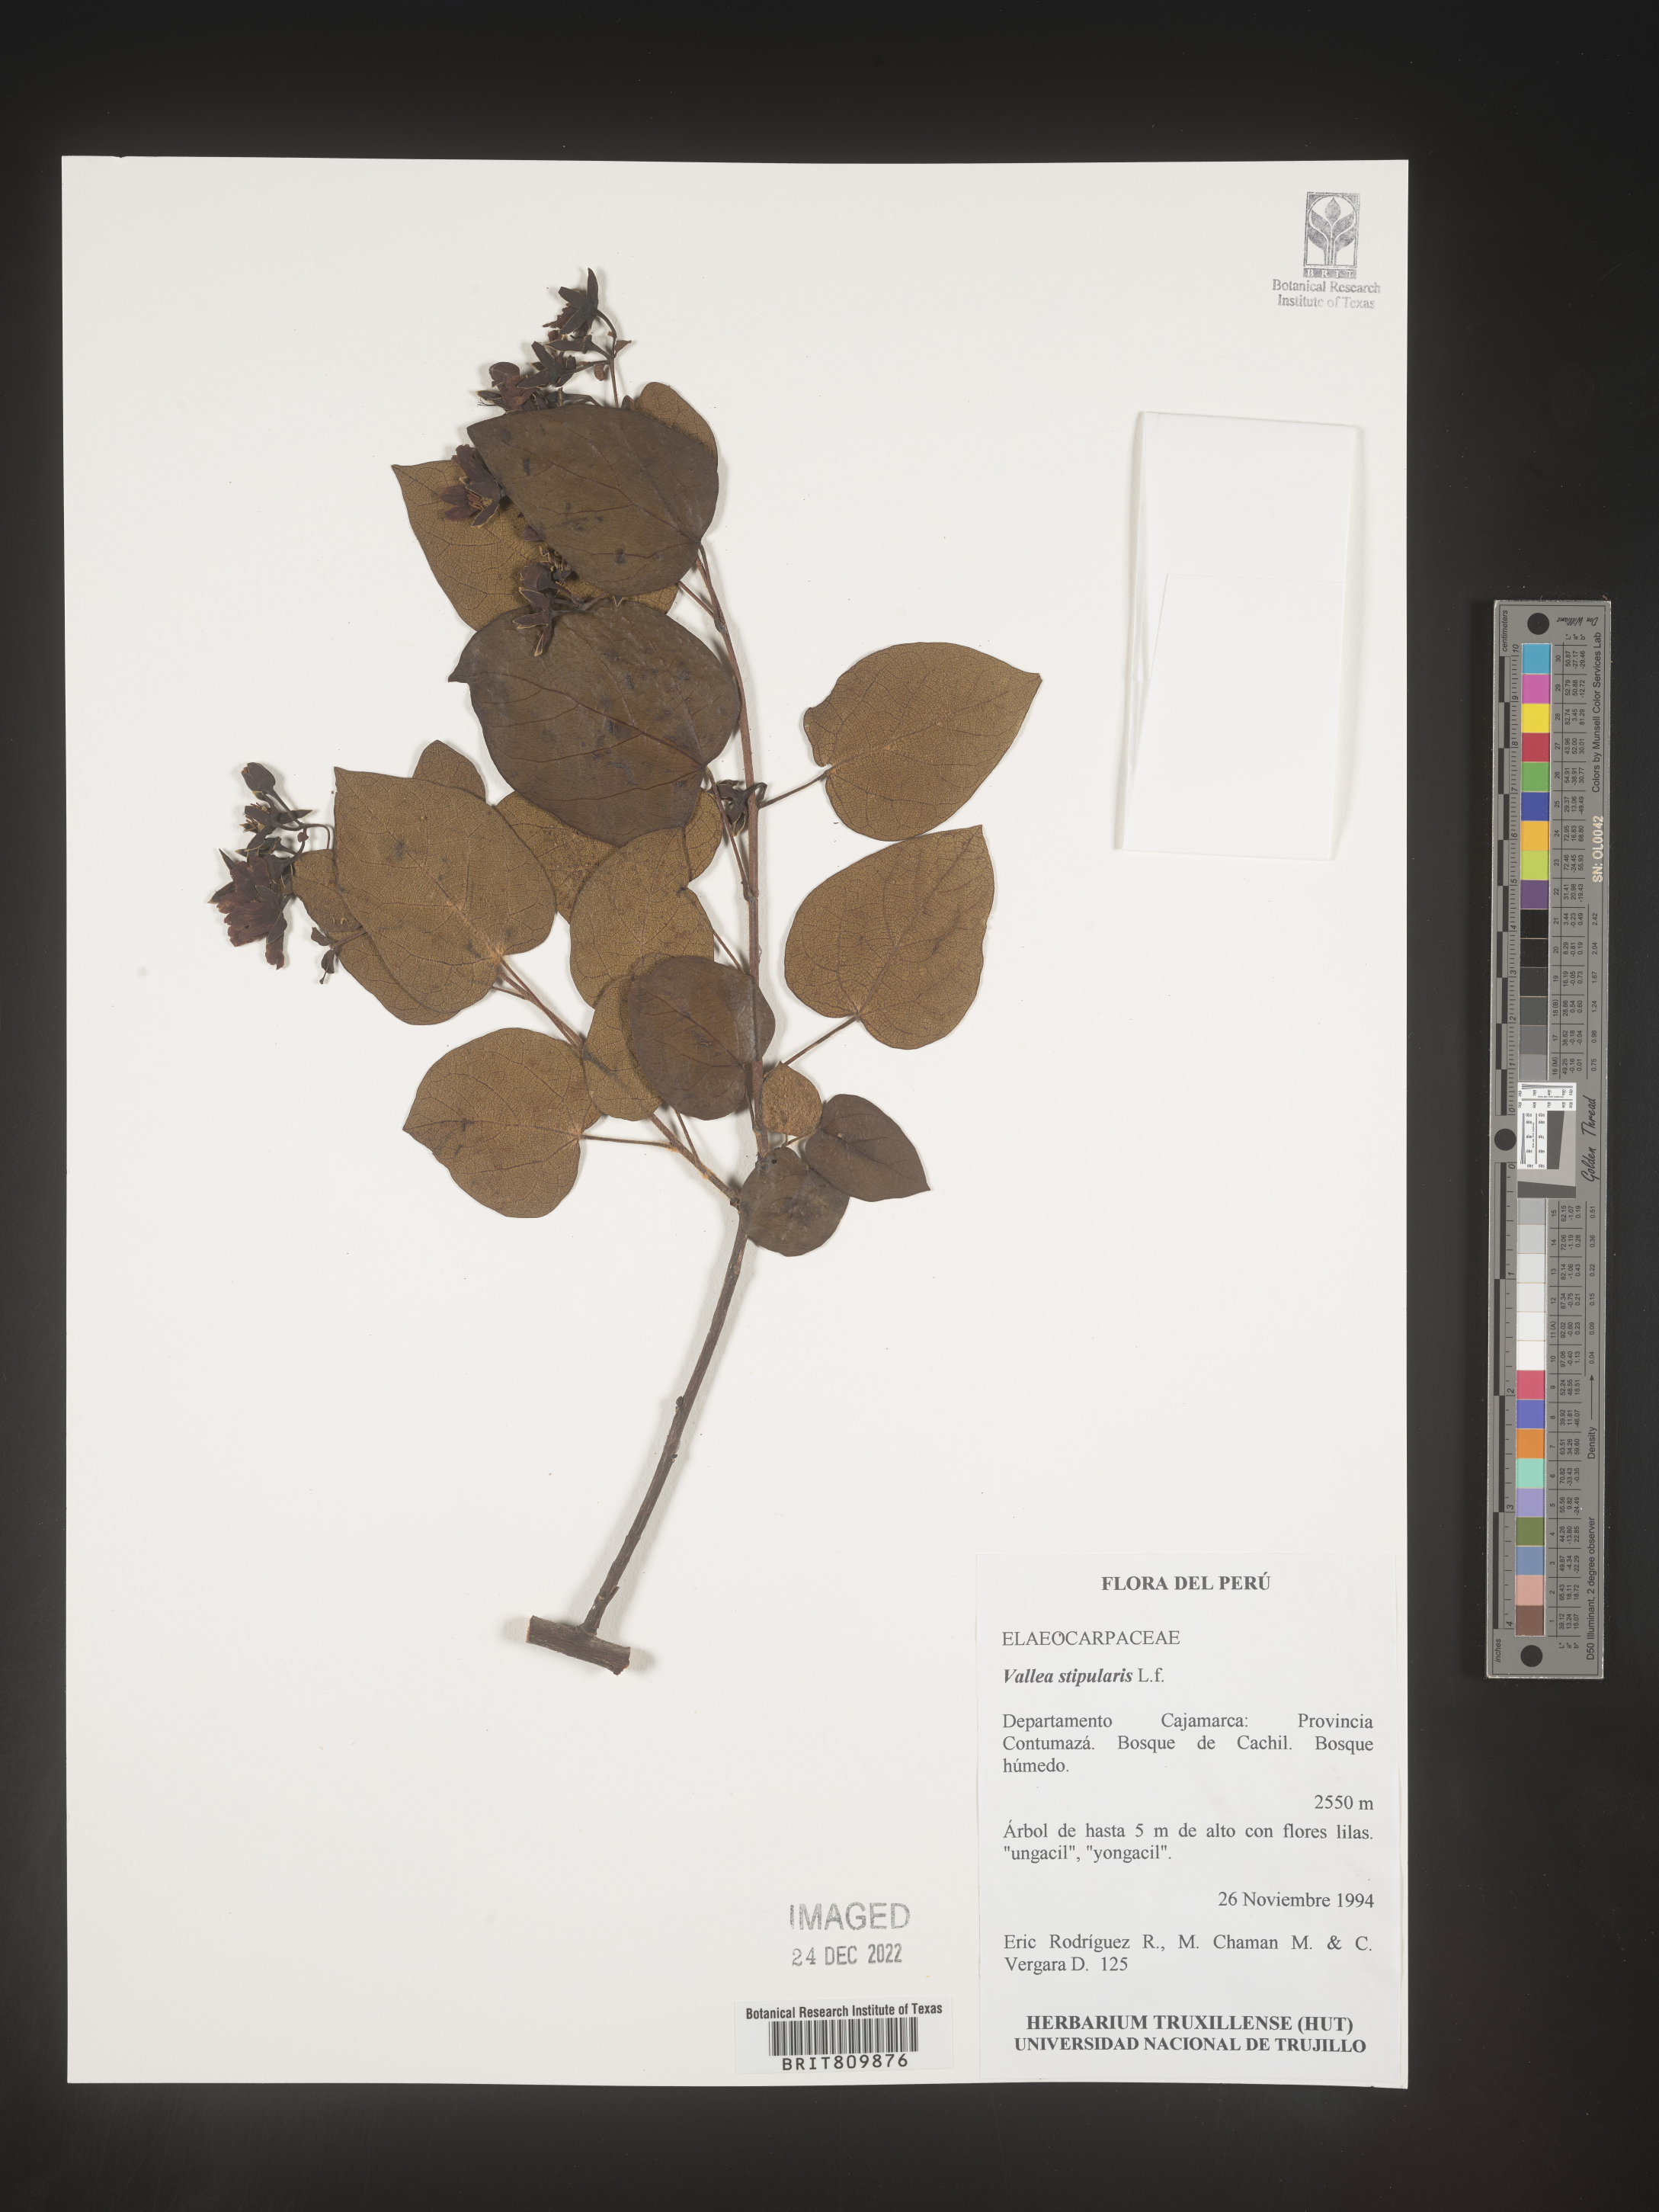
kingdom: Plantae
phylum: Tracheophyta
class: Magnoliopsida
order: Oxalidales
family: Elaeocarpaceae
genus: Vallea
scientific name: Vallea
